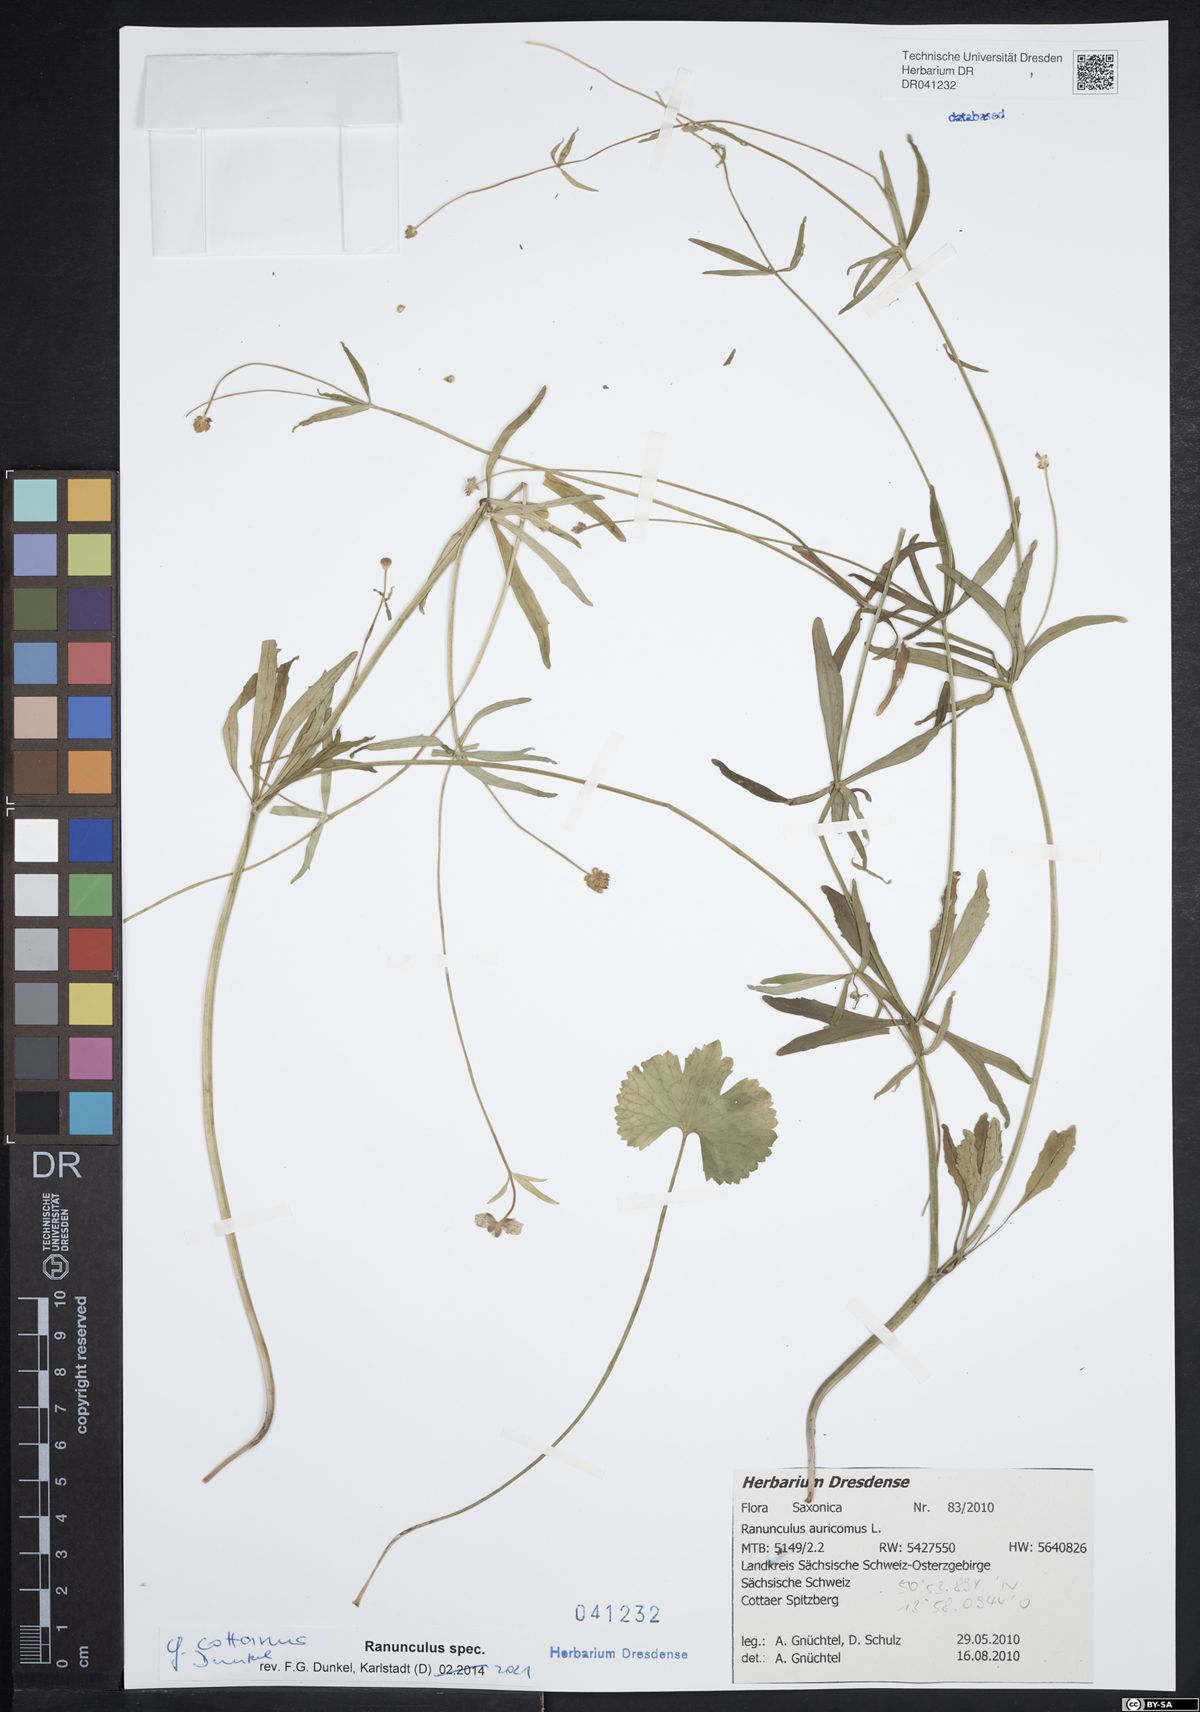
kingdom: Plantae
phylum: Tracheophyta
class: Magnoliopsida
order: Ranunculales
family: Ranunculaceae
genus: Ranunculus
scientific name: Ranunculus cottanus
